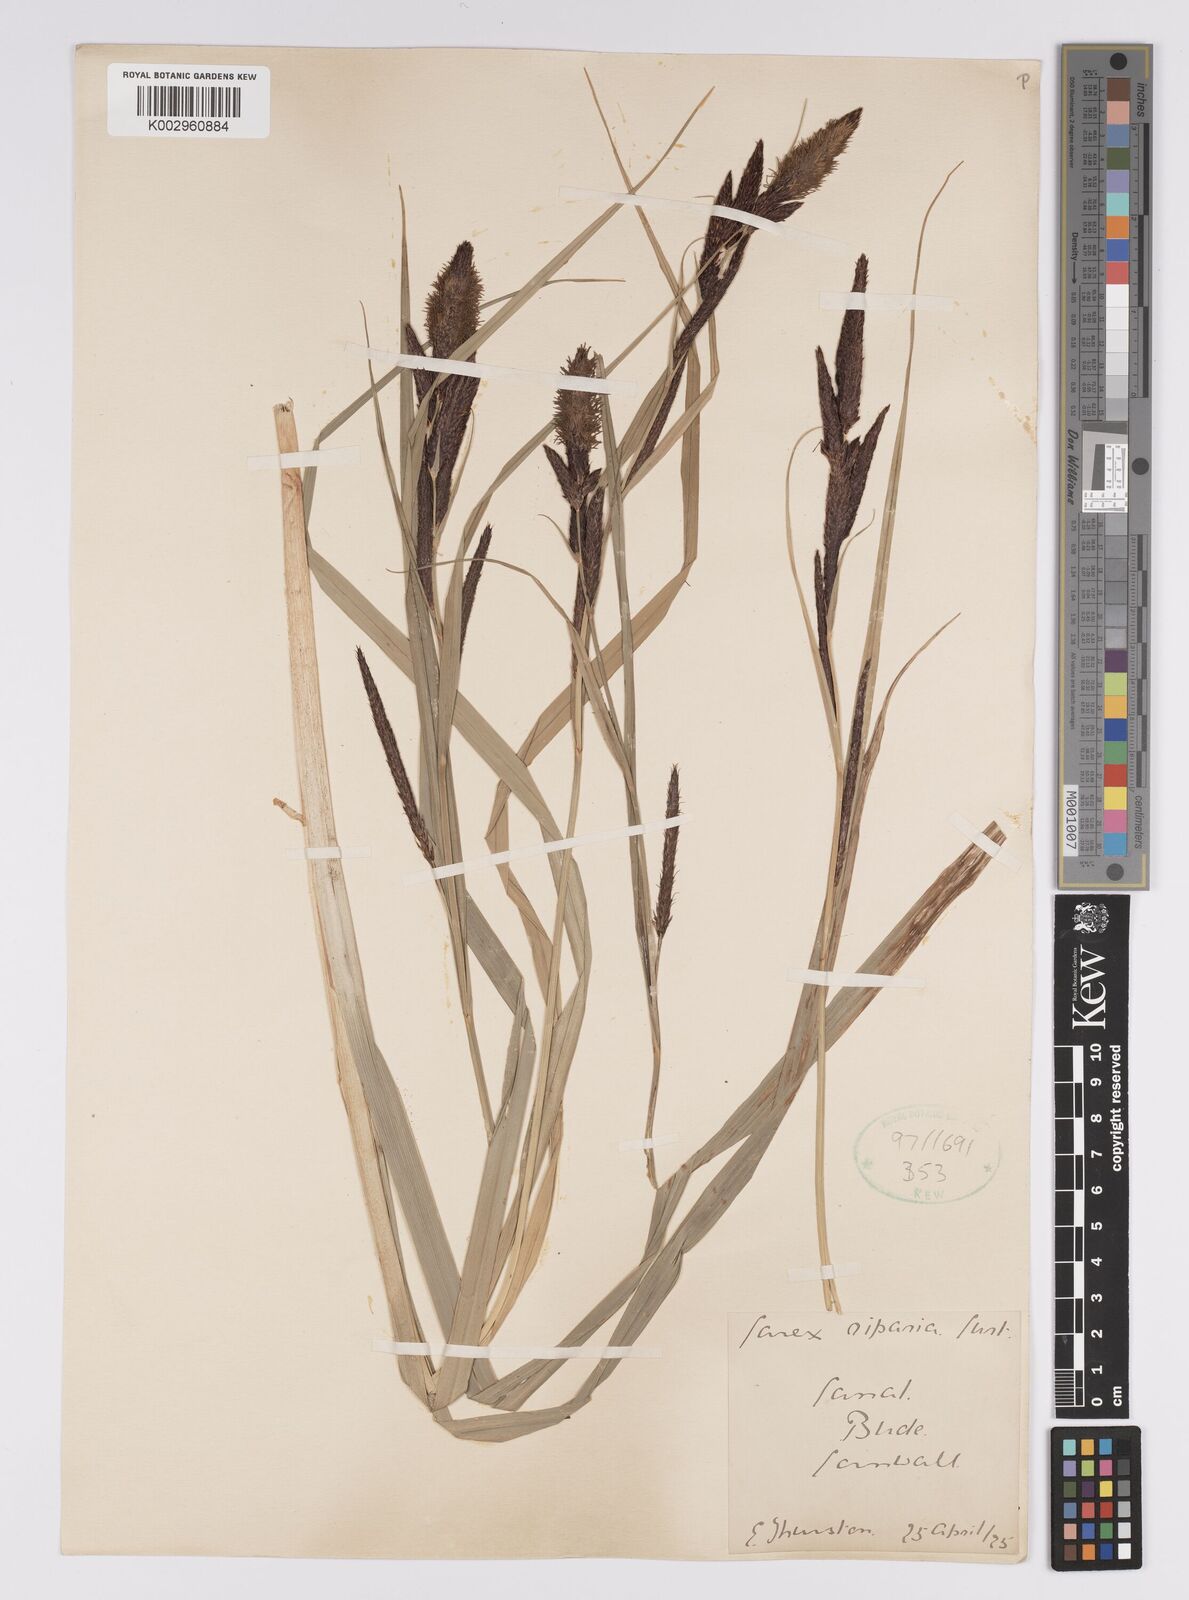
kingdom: Plantae
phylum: Tracheophyta
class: Liliopsida
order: Poales
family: Cyperaceae
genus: Carex
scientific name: Carex acutiformis
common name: Lesser pond-sedge
